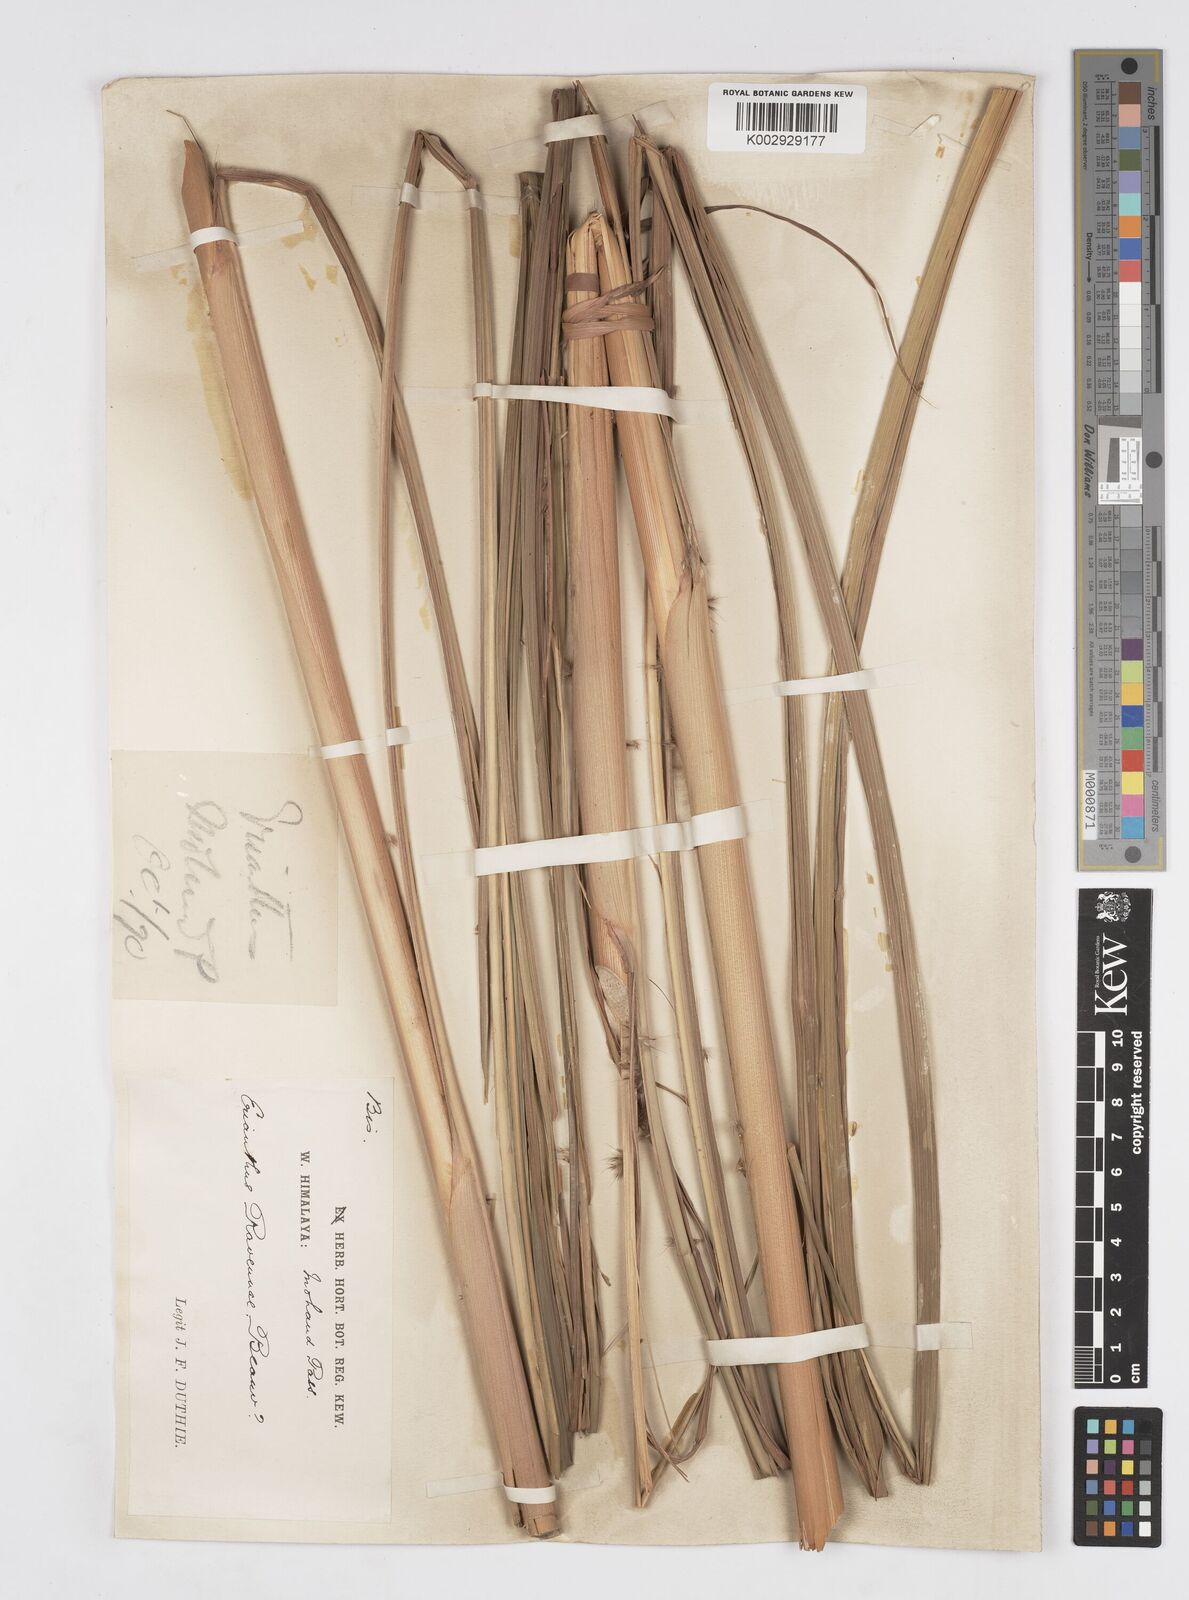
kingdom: Plantae
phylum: Tracheophyta
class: Liliopsida
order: Poales
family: Poaceae
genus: Saccharum
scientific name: Saccharum
